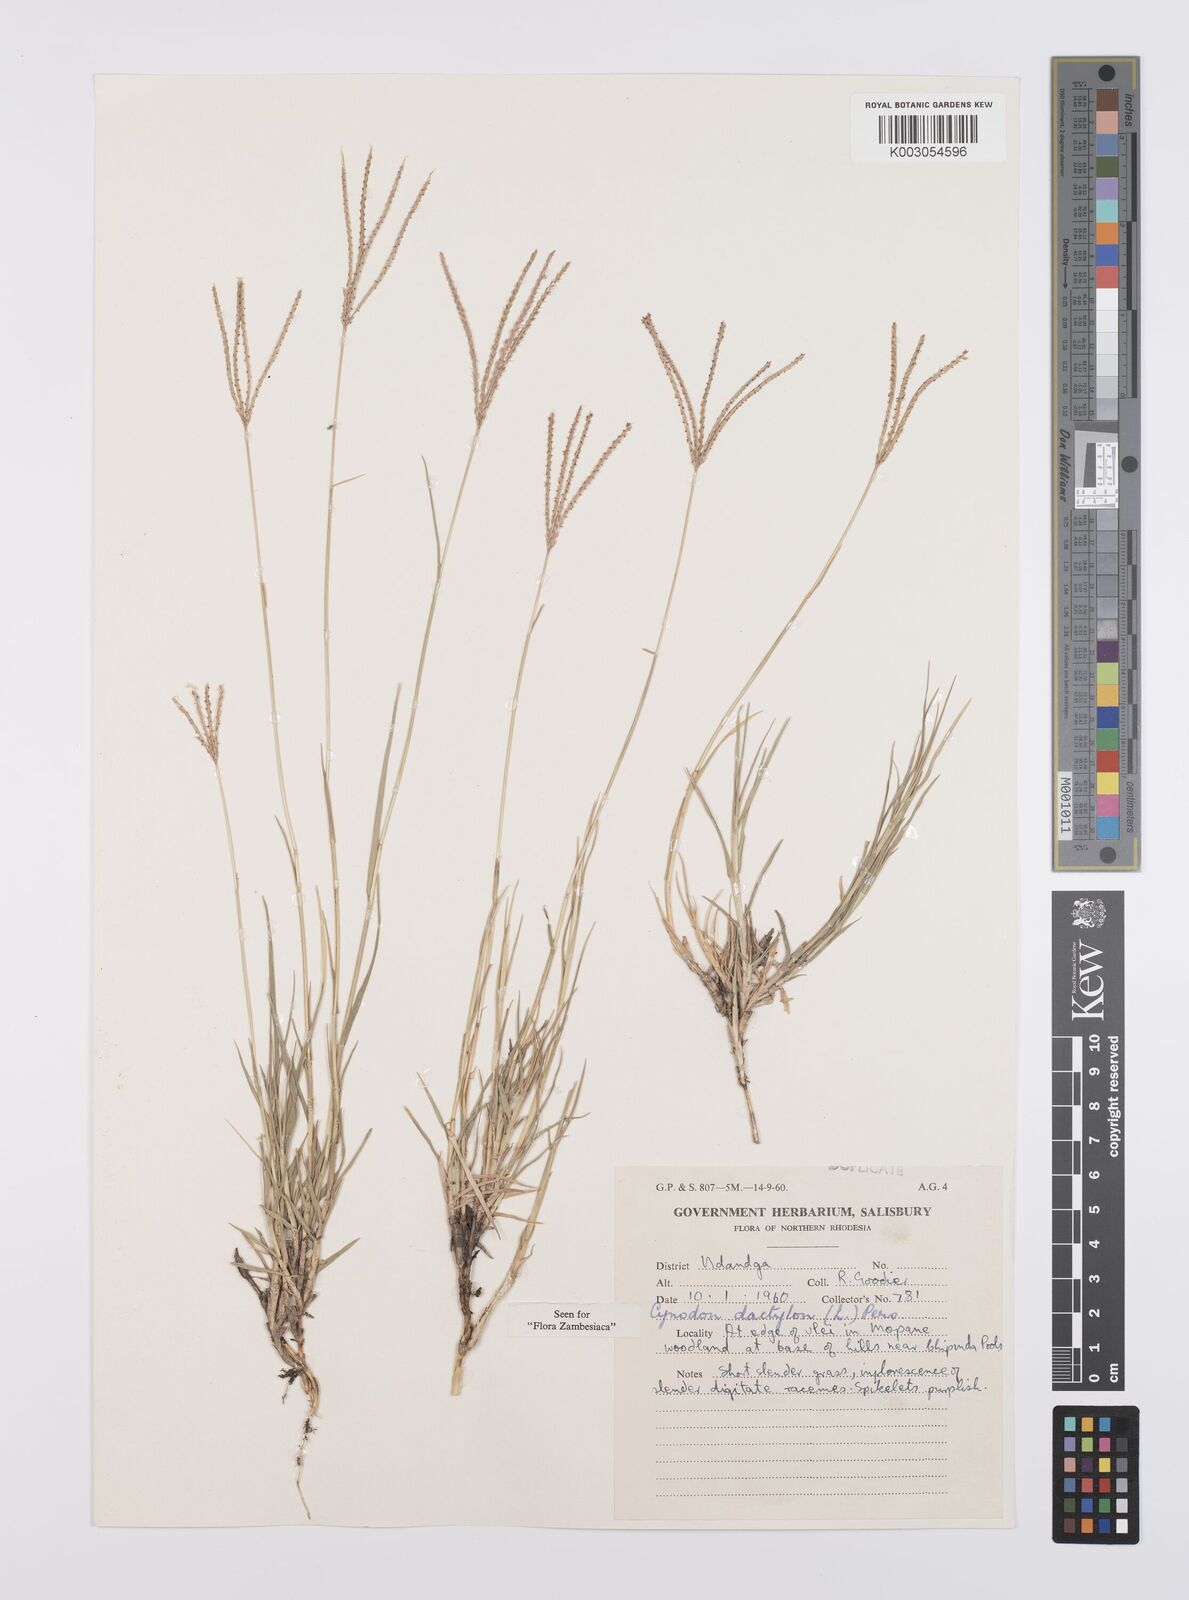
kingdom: Plantae
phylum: Tracheophyta
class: Liliopsida
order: Poales
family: Poaceae
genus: Cynodon
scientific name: Cynodon dactylon
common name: Bermuda grass
